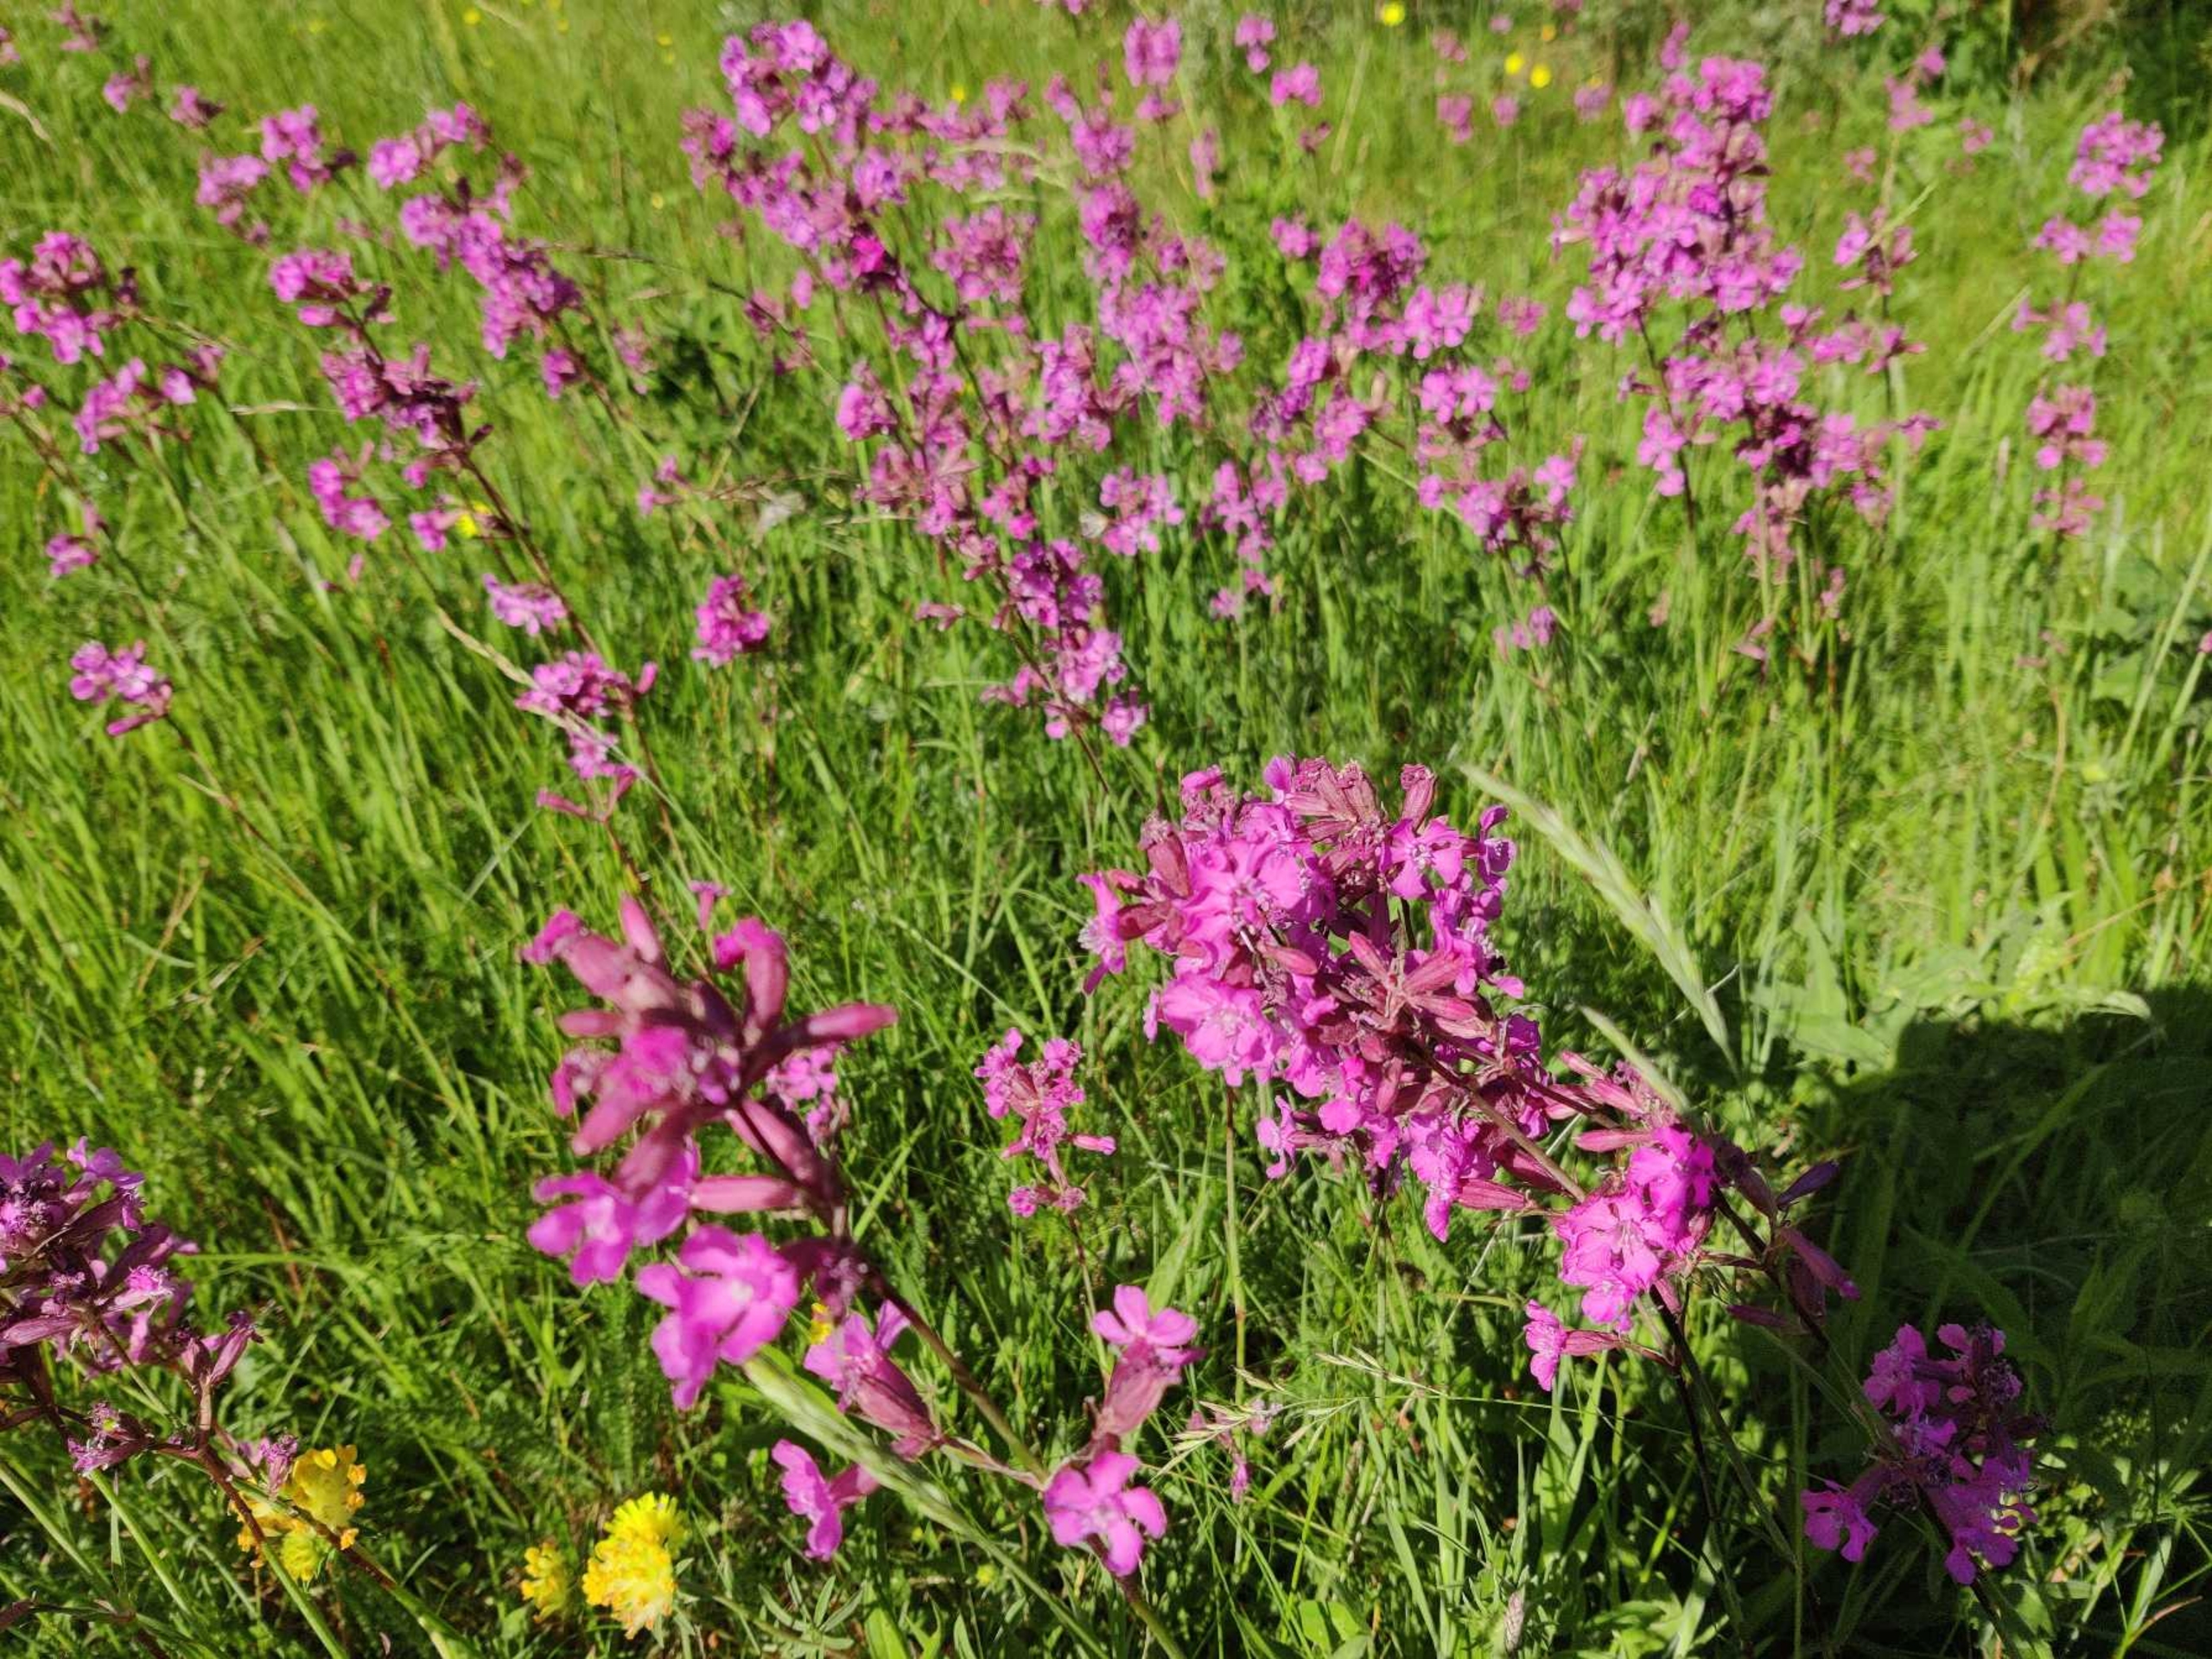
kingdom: Plantae
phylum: Tracheophyta
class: Magnoliopsida
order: Caryophyllales
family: Caryophyllaceae
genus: Viscaria
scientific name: Viscaria vulgaris
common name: Tjærenellike
